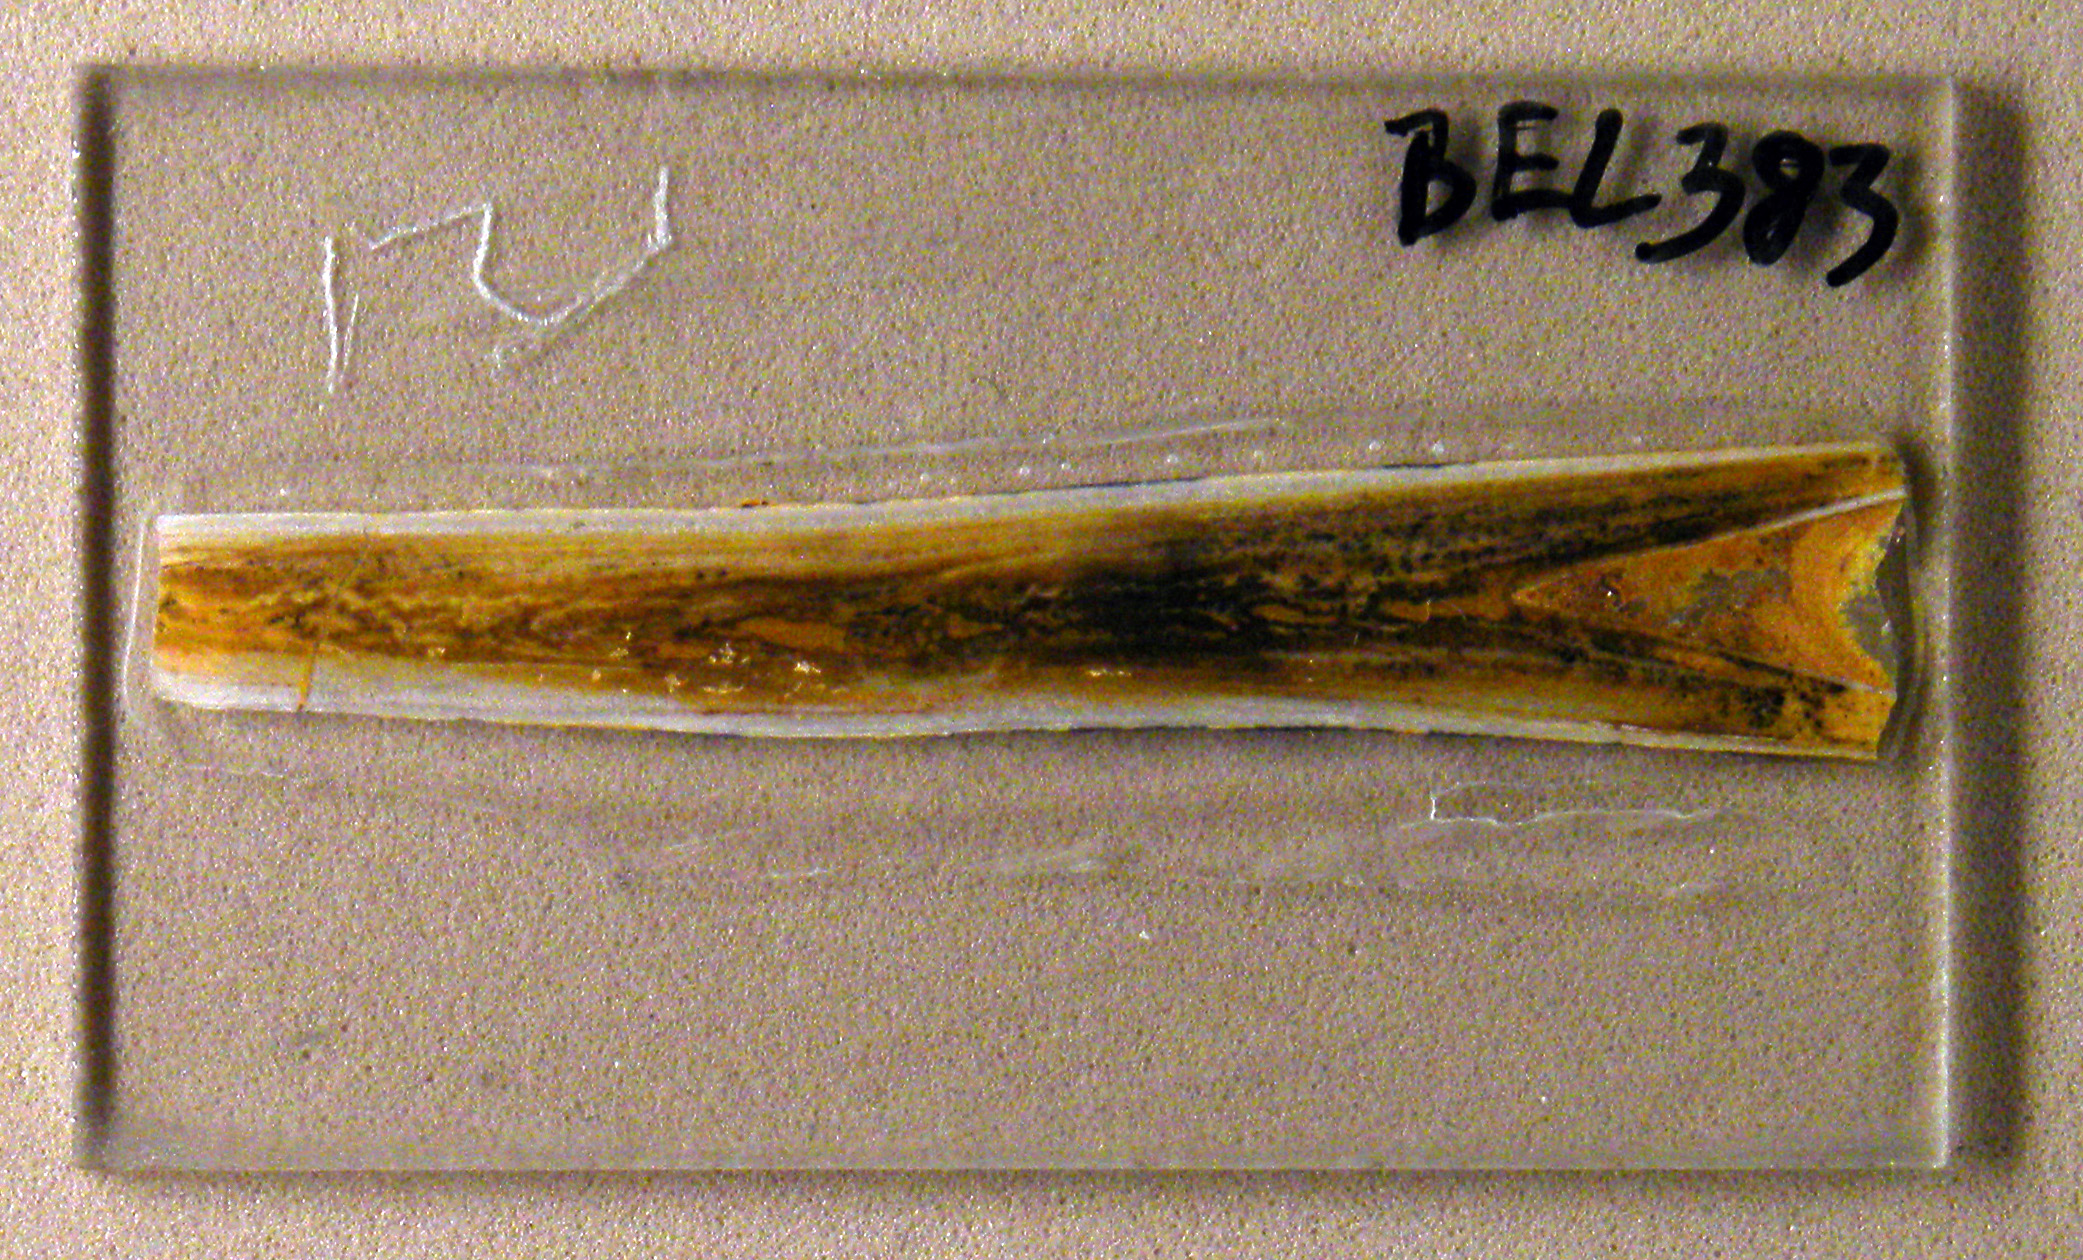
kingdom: Animalia
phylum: Mollusca
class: Cephalopoda
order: Belemnitida
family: Salpingoteuthididae
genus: Salpingoteuthis
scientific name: Salpingoteuthis trisulcata
